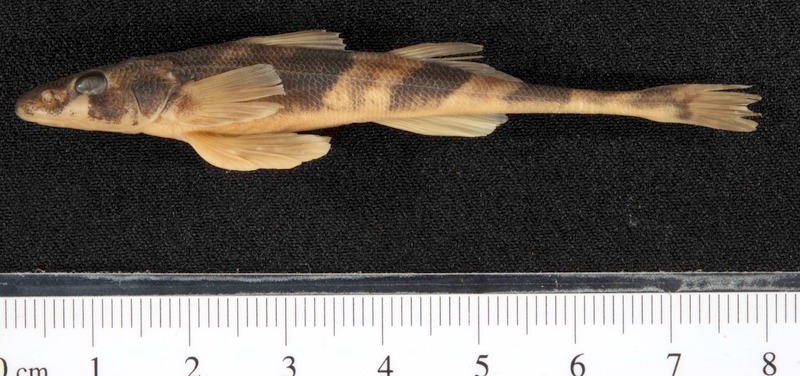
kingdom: Animalia
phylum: Chordata
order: Perciformes
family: Percidae
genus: Zingel
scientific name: Zingel streber
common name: Danube streber
